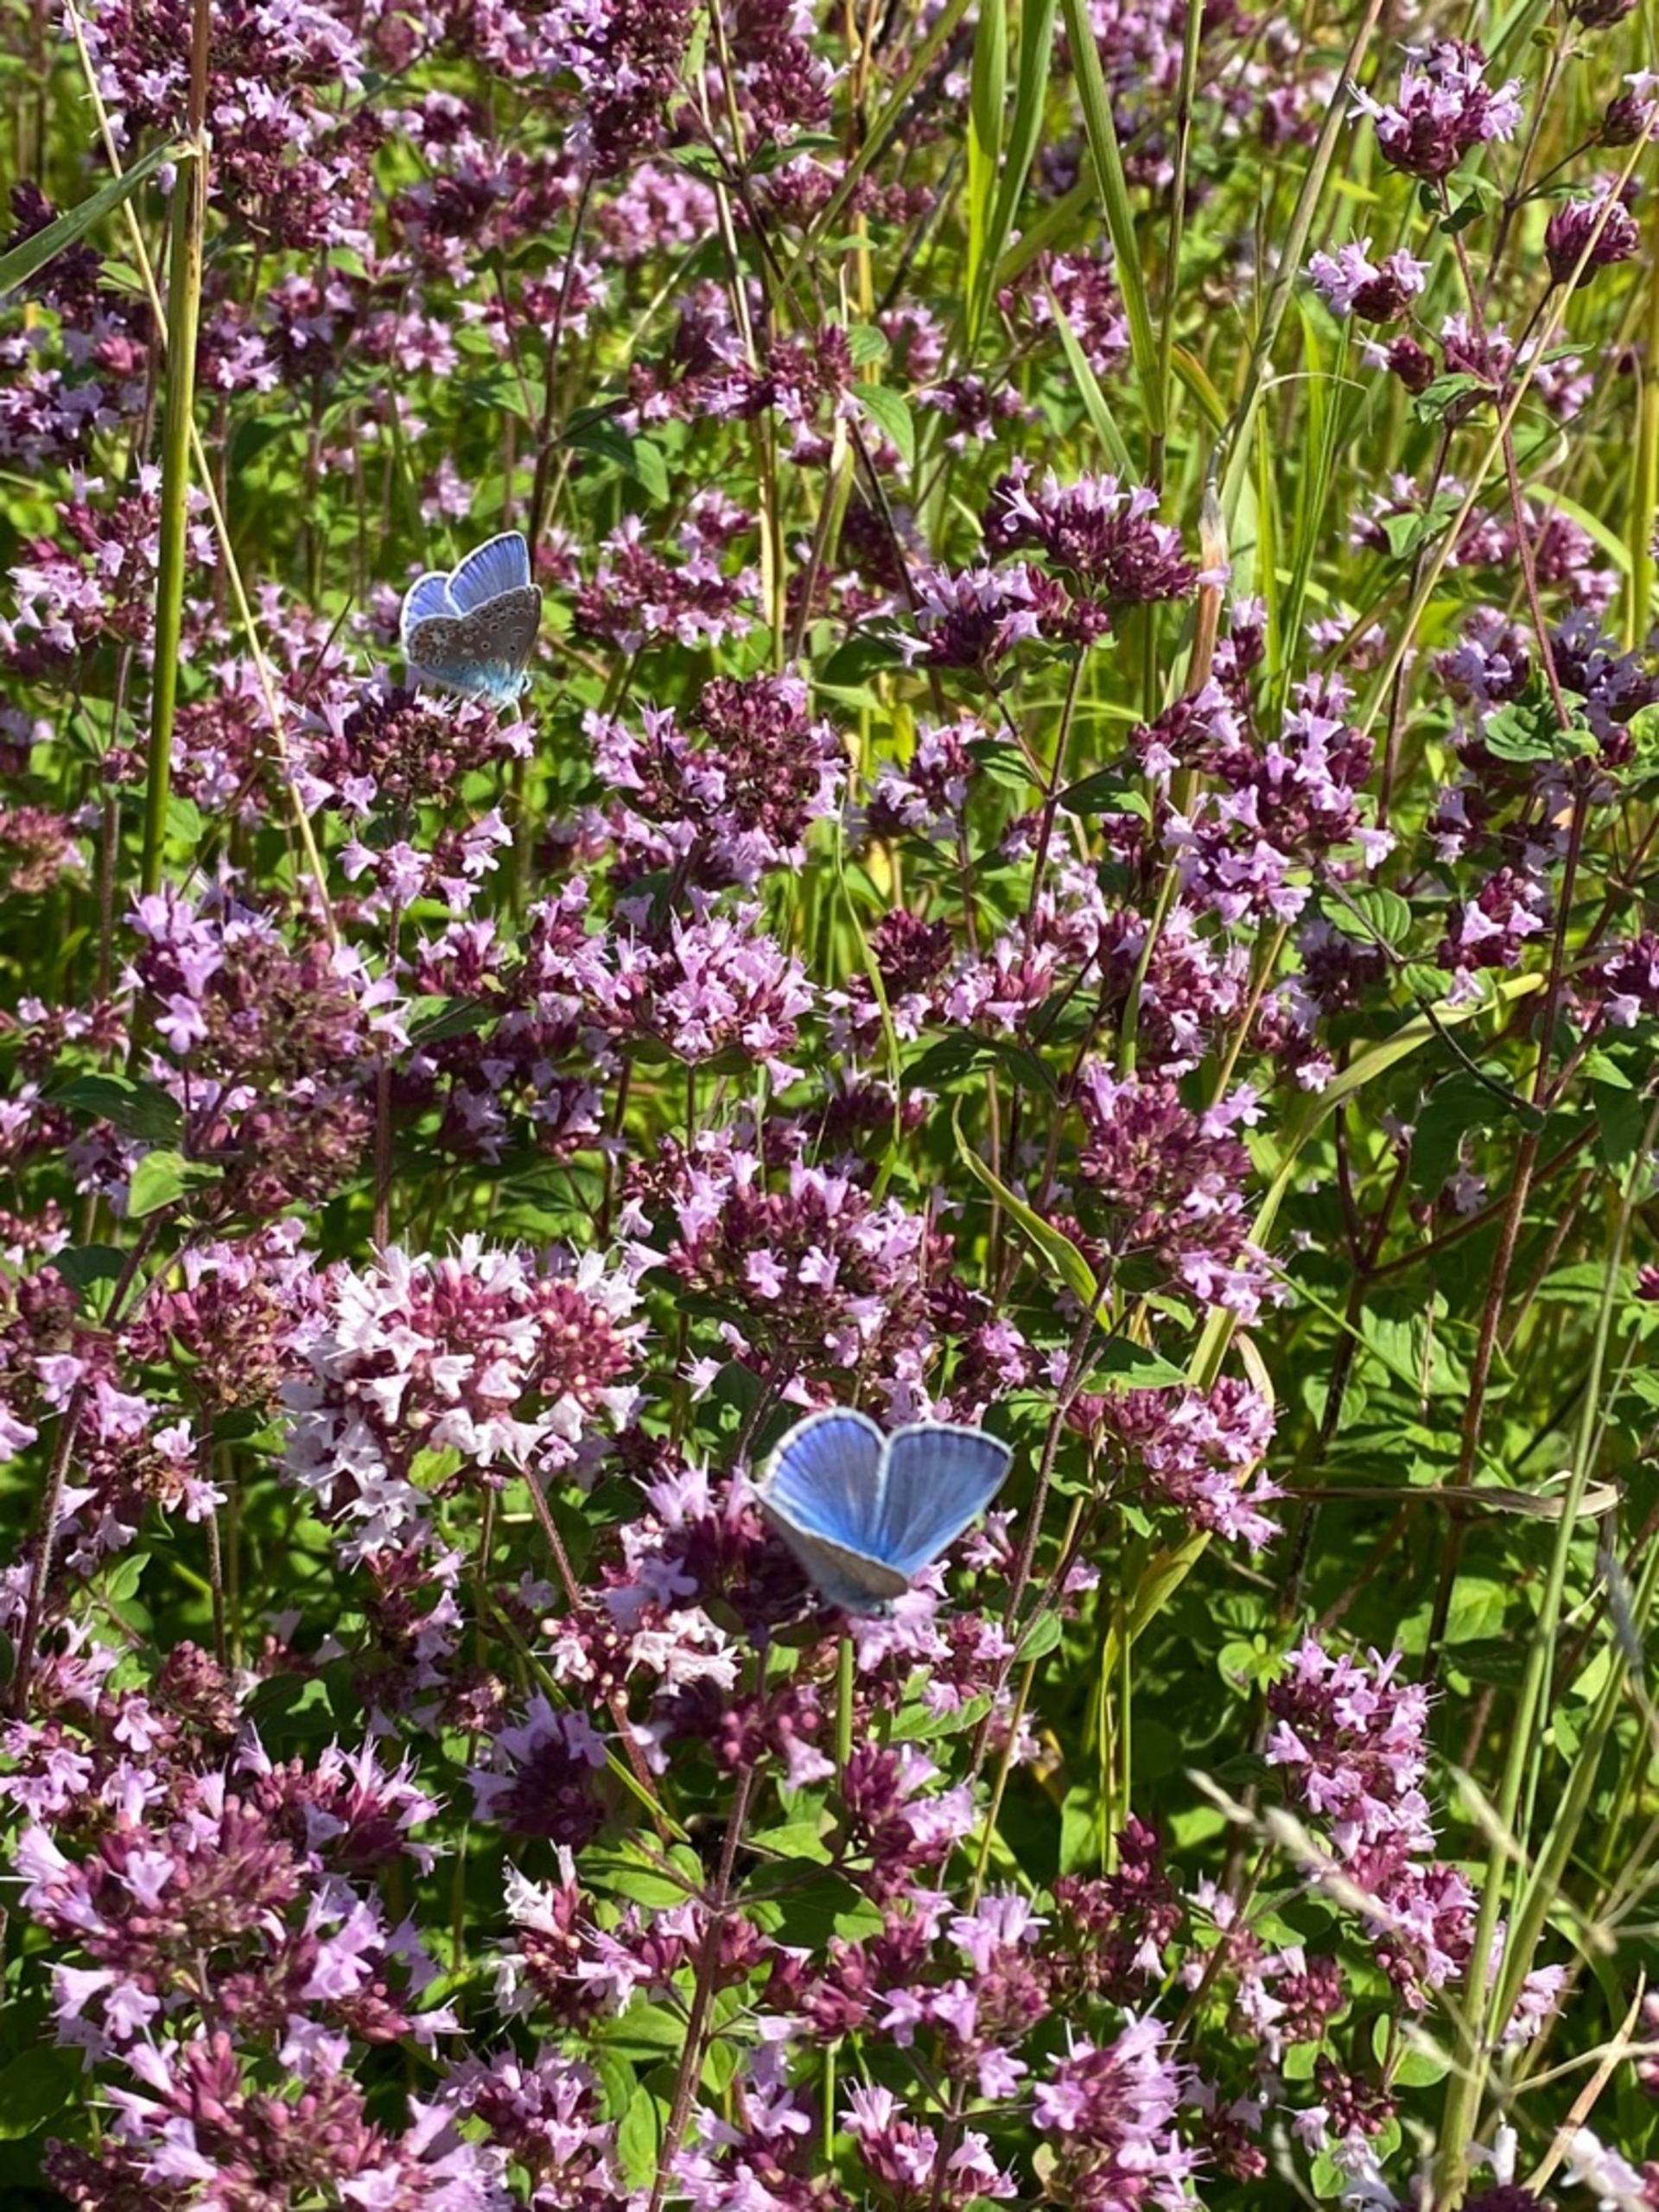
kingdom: Animalia
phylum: Arthropoda
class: Insecta
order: Lepidoptera
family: Lycaenidae
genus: Polyommatus
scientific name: Polyommatus icarus
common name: Almindelig blåfugl
